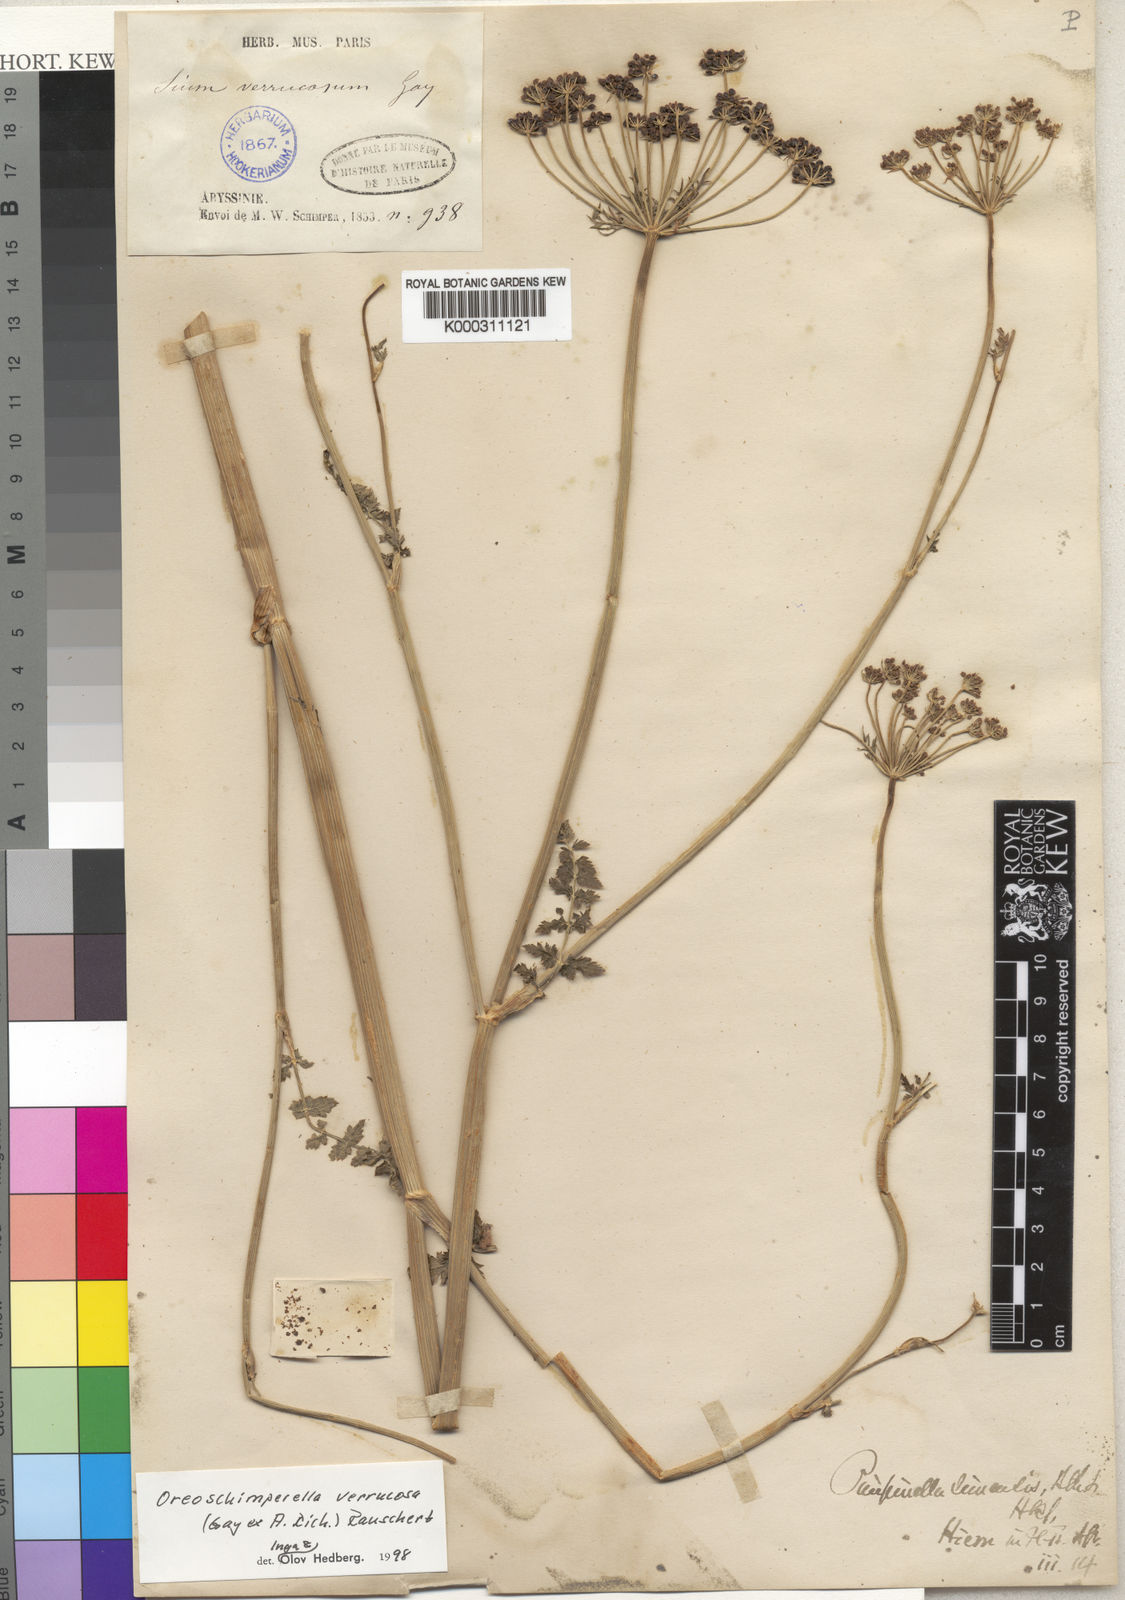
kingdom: Plantae
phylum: Tracheophyta
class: Magnoliopsida
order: Apiales
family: Apiaceae
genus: Oreoschimperella
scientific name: Oreoschimperella verrucosa
